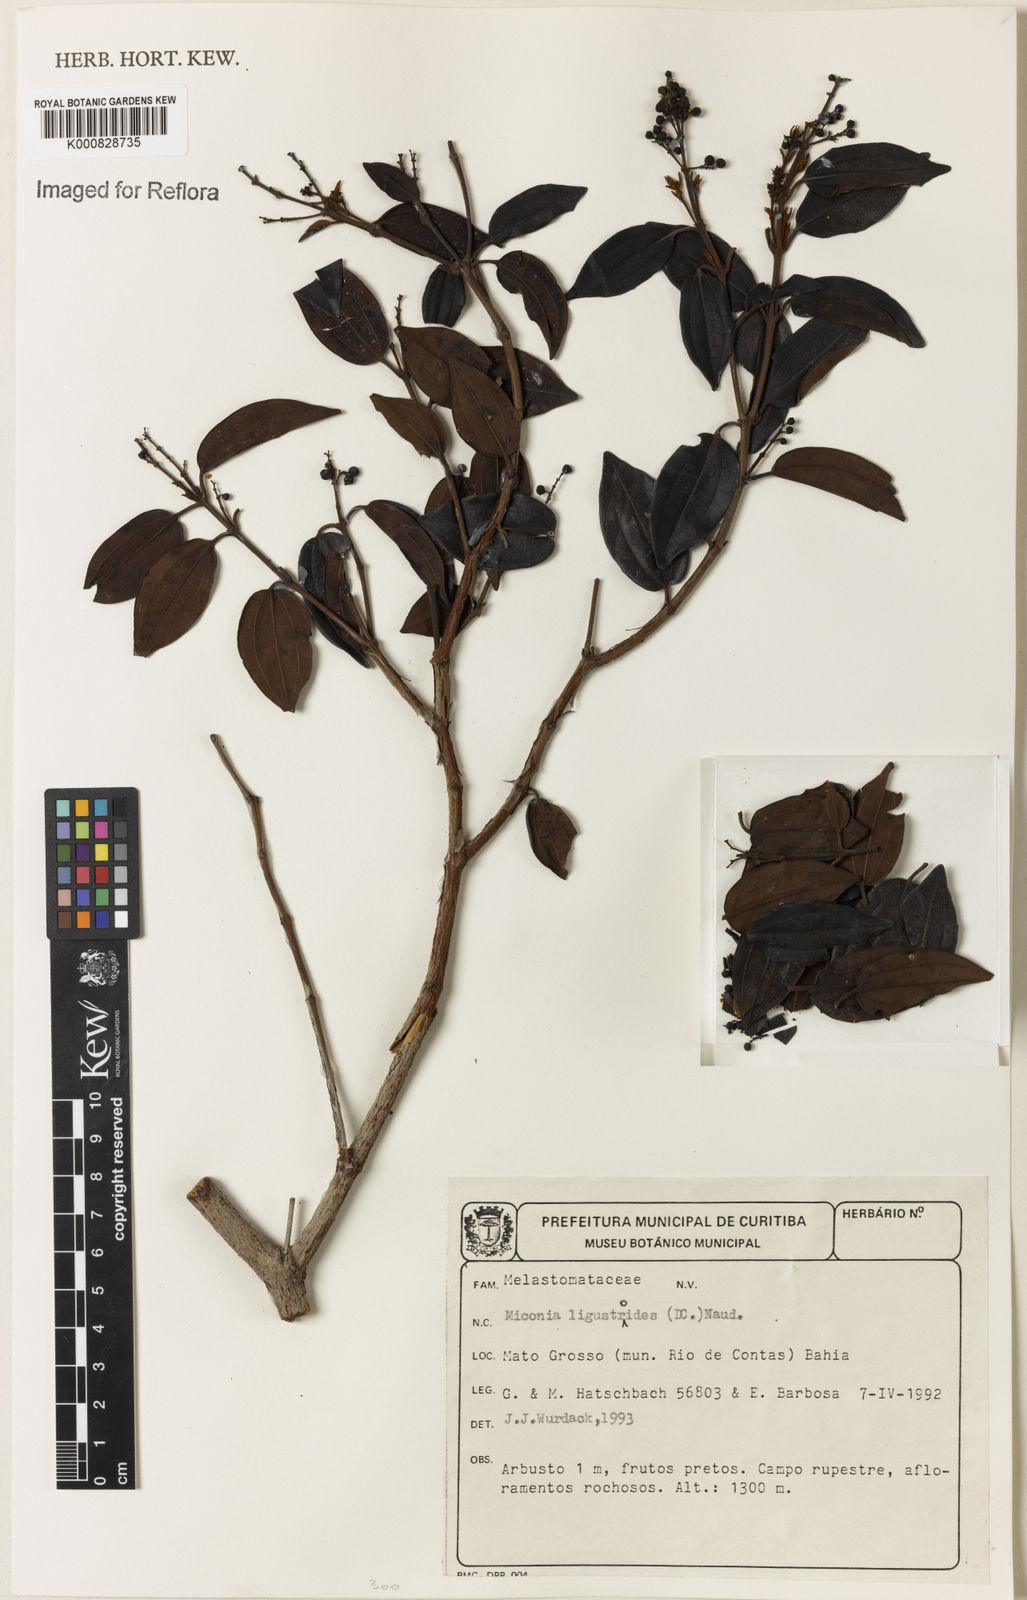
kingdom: Plantae
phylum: Tracheophyta
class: Magnoliopsida
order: Myrtales
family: Melastomataceae
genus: Miconia
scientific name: Miconia ligustroides
